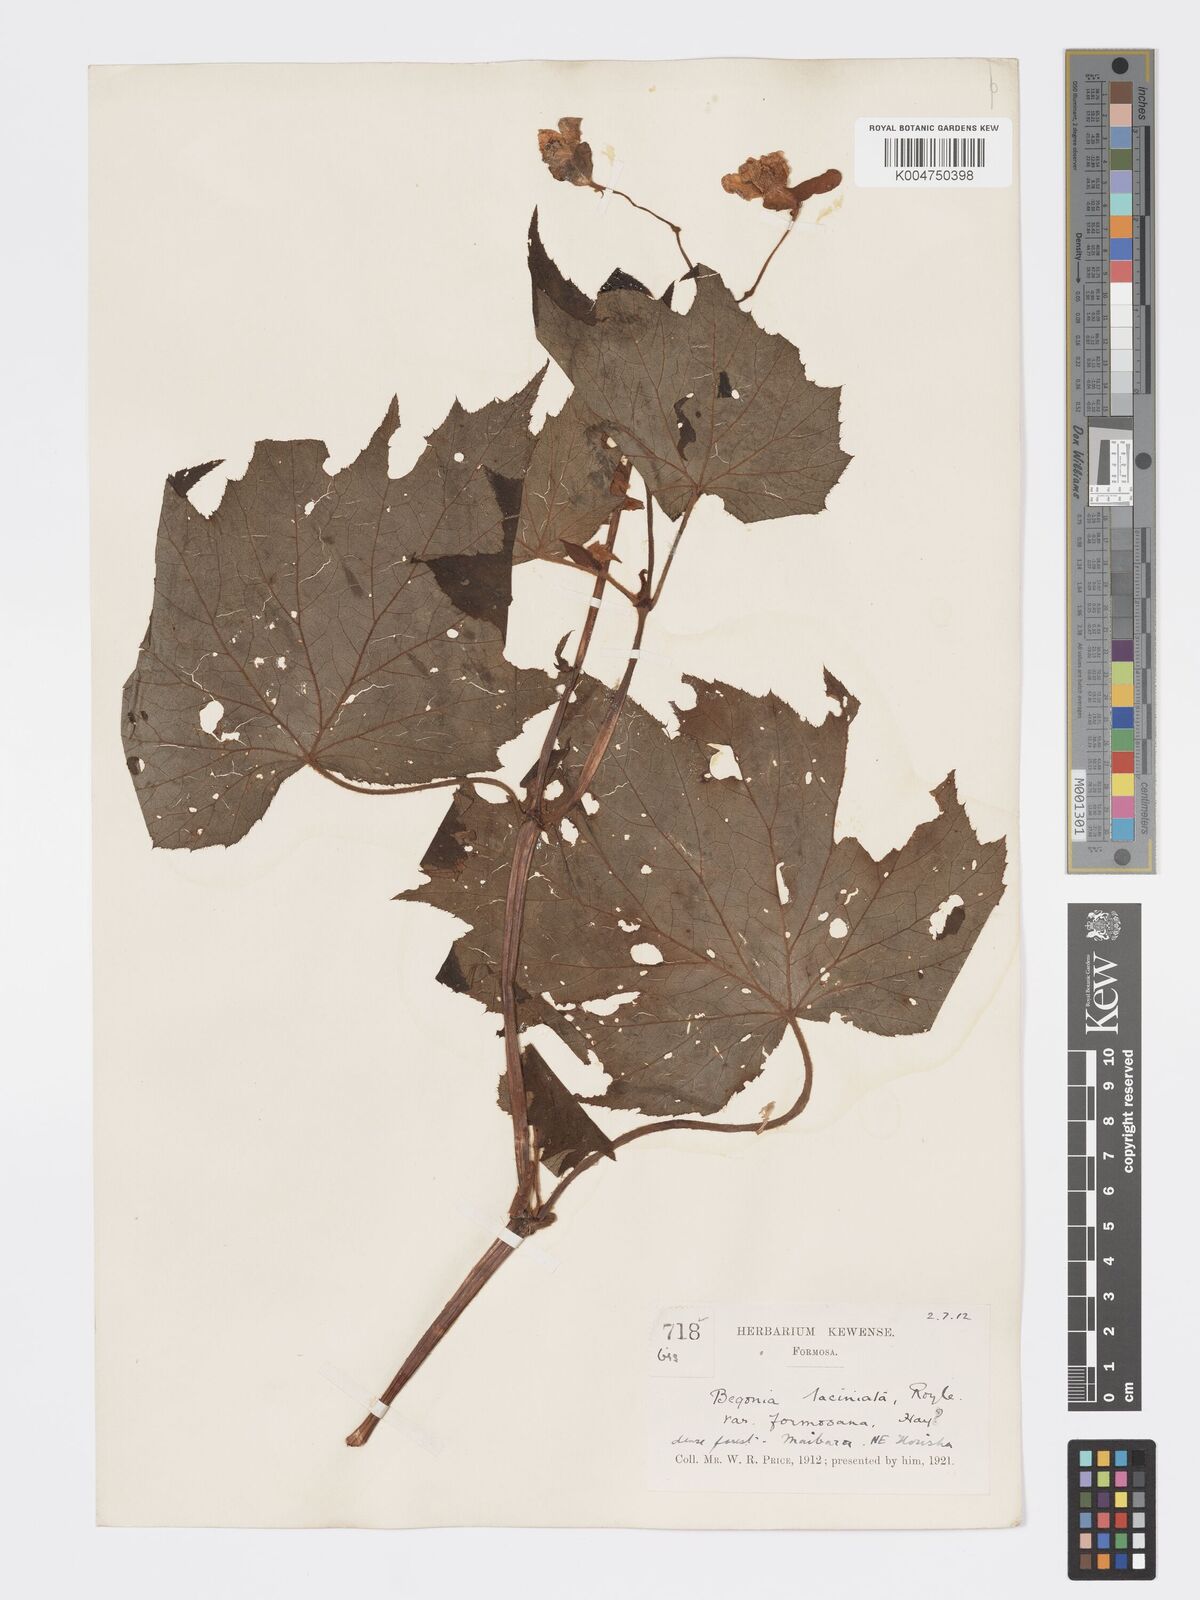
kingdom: Plantae
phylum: Tracheophyta
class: Magnoliopsida
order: Cucurbitales
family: Begoniaceae
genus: Begonia
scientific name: Begonia palmata
